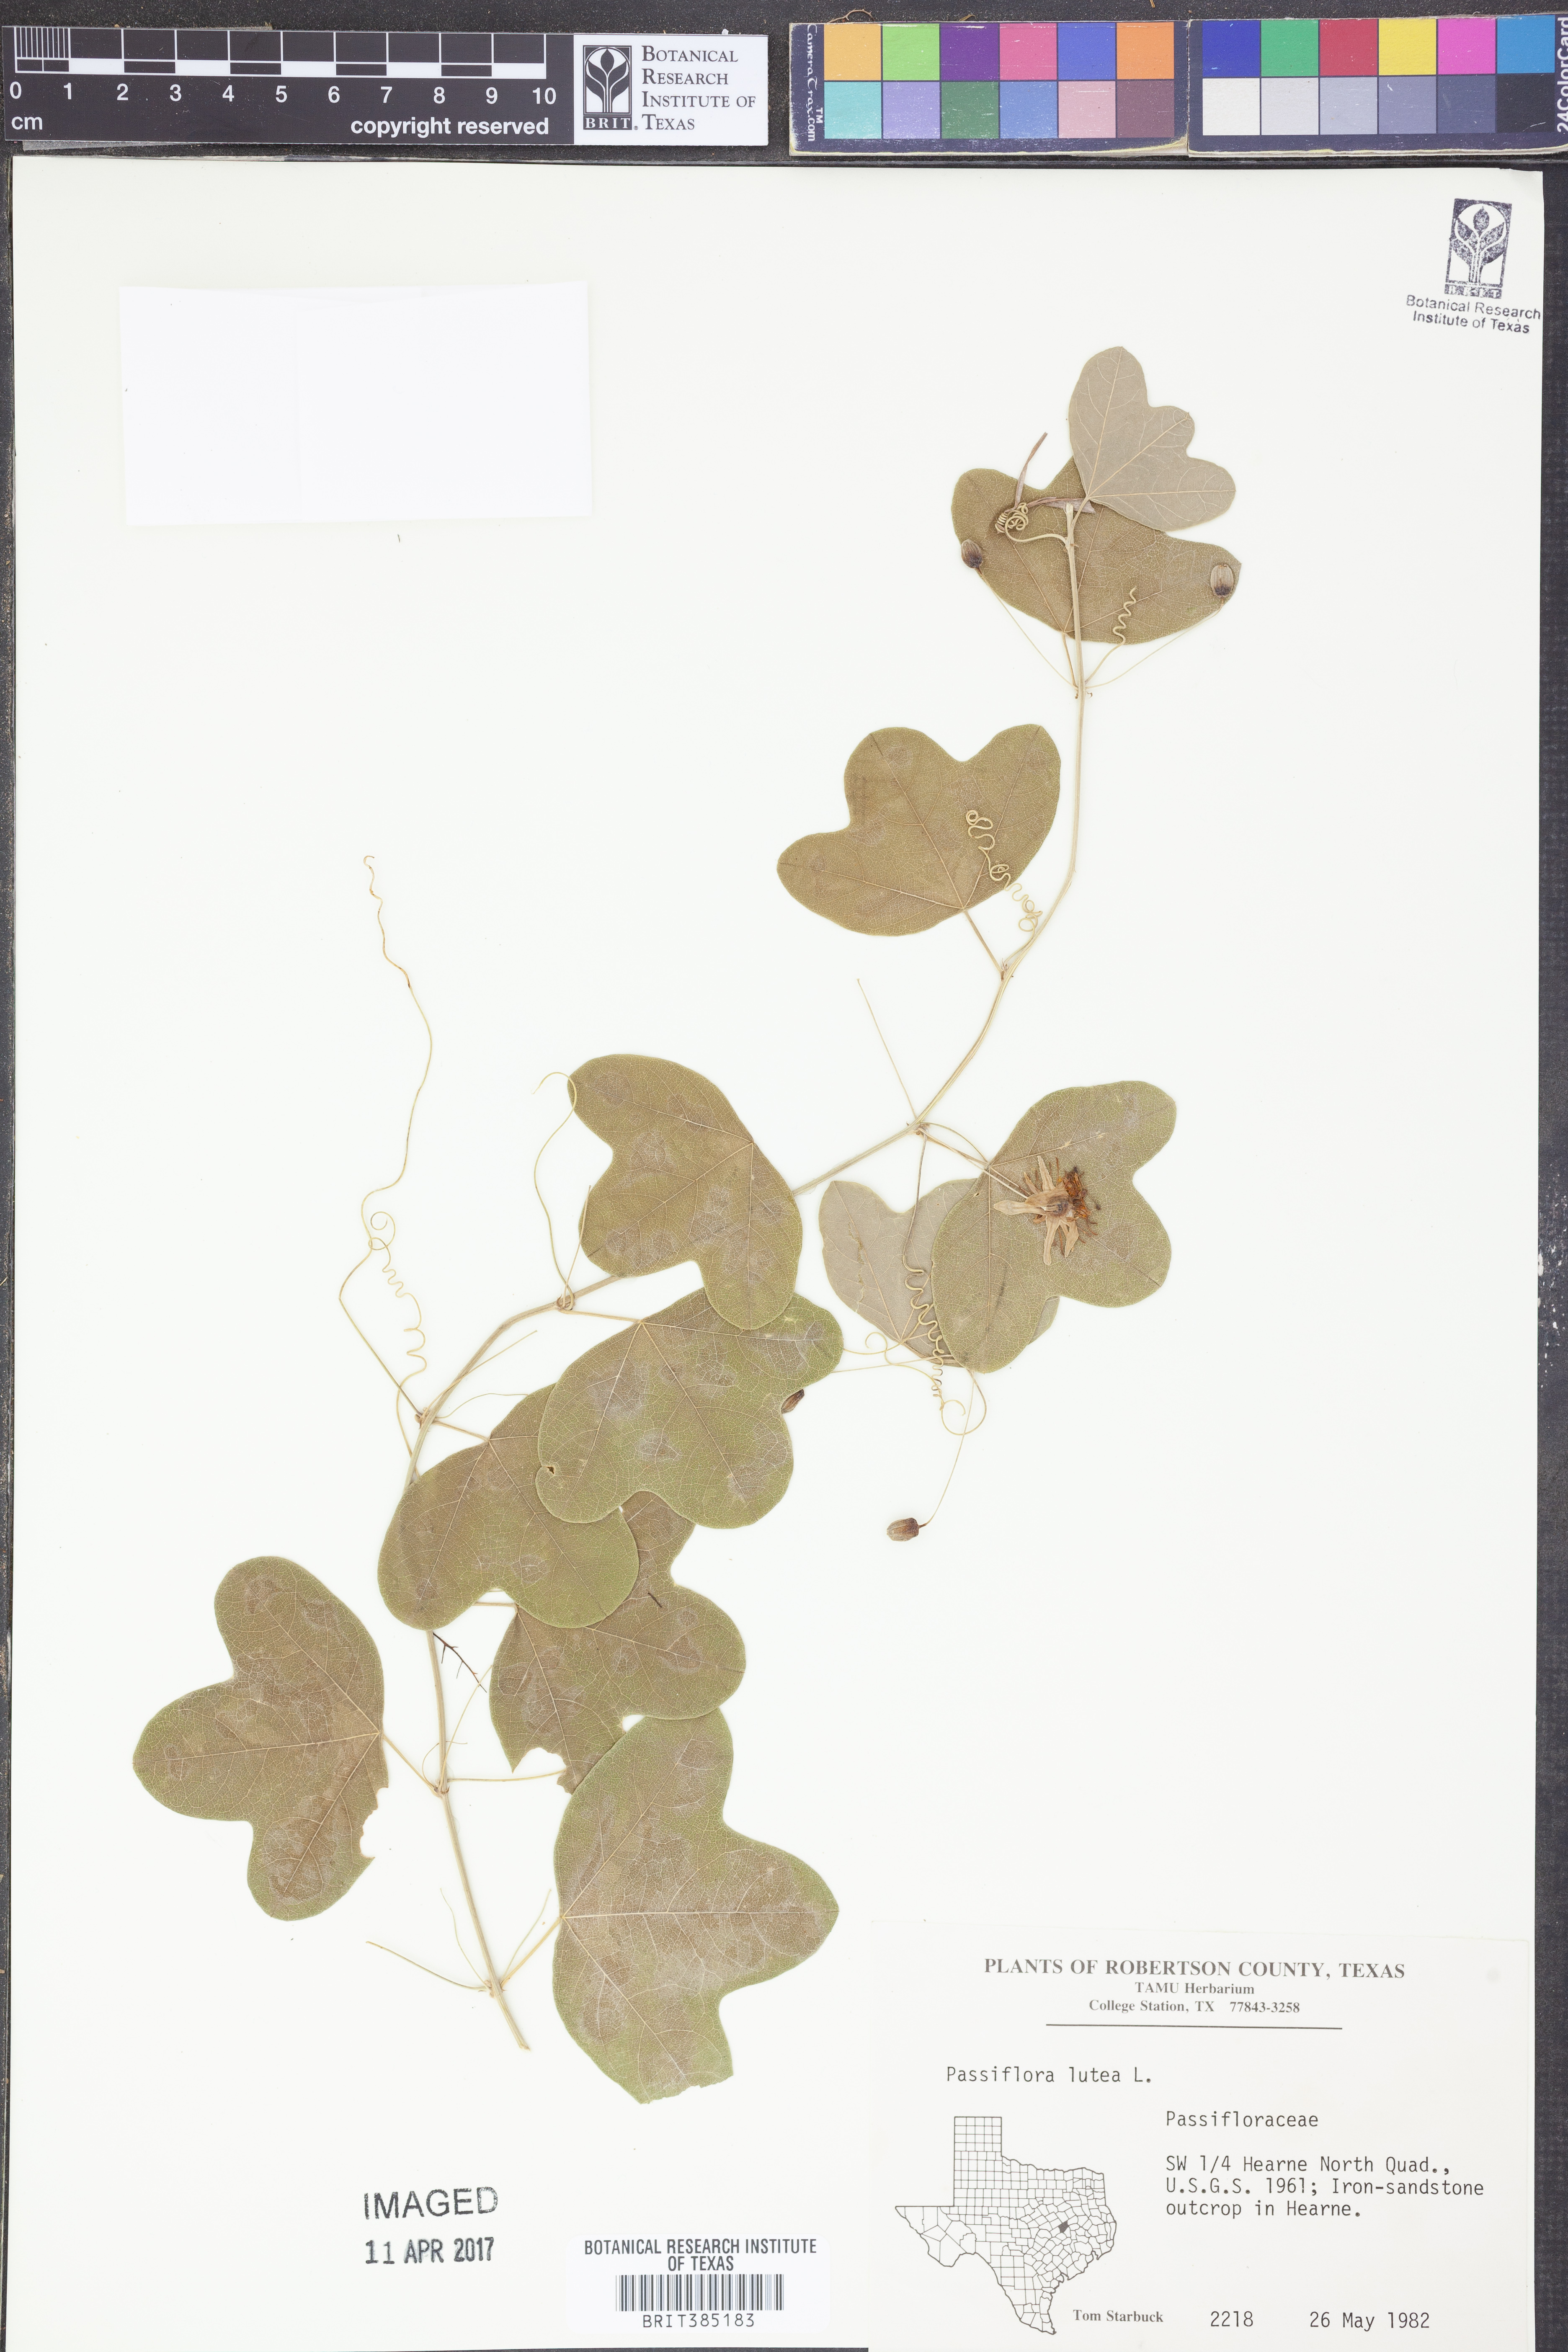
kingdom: Plantae
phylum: Tracheophyta
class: Magnoliopsida
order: Malpighiales
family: Passifloraceae
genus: Passiflora
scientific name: Passiflora lutea
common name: Yellow passionflower
